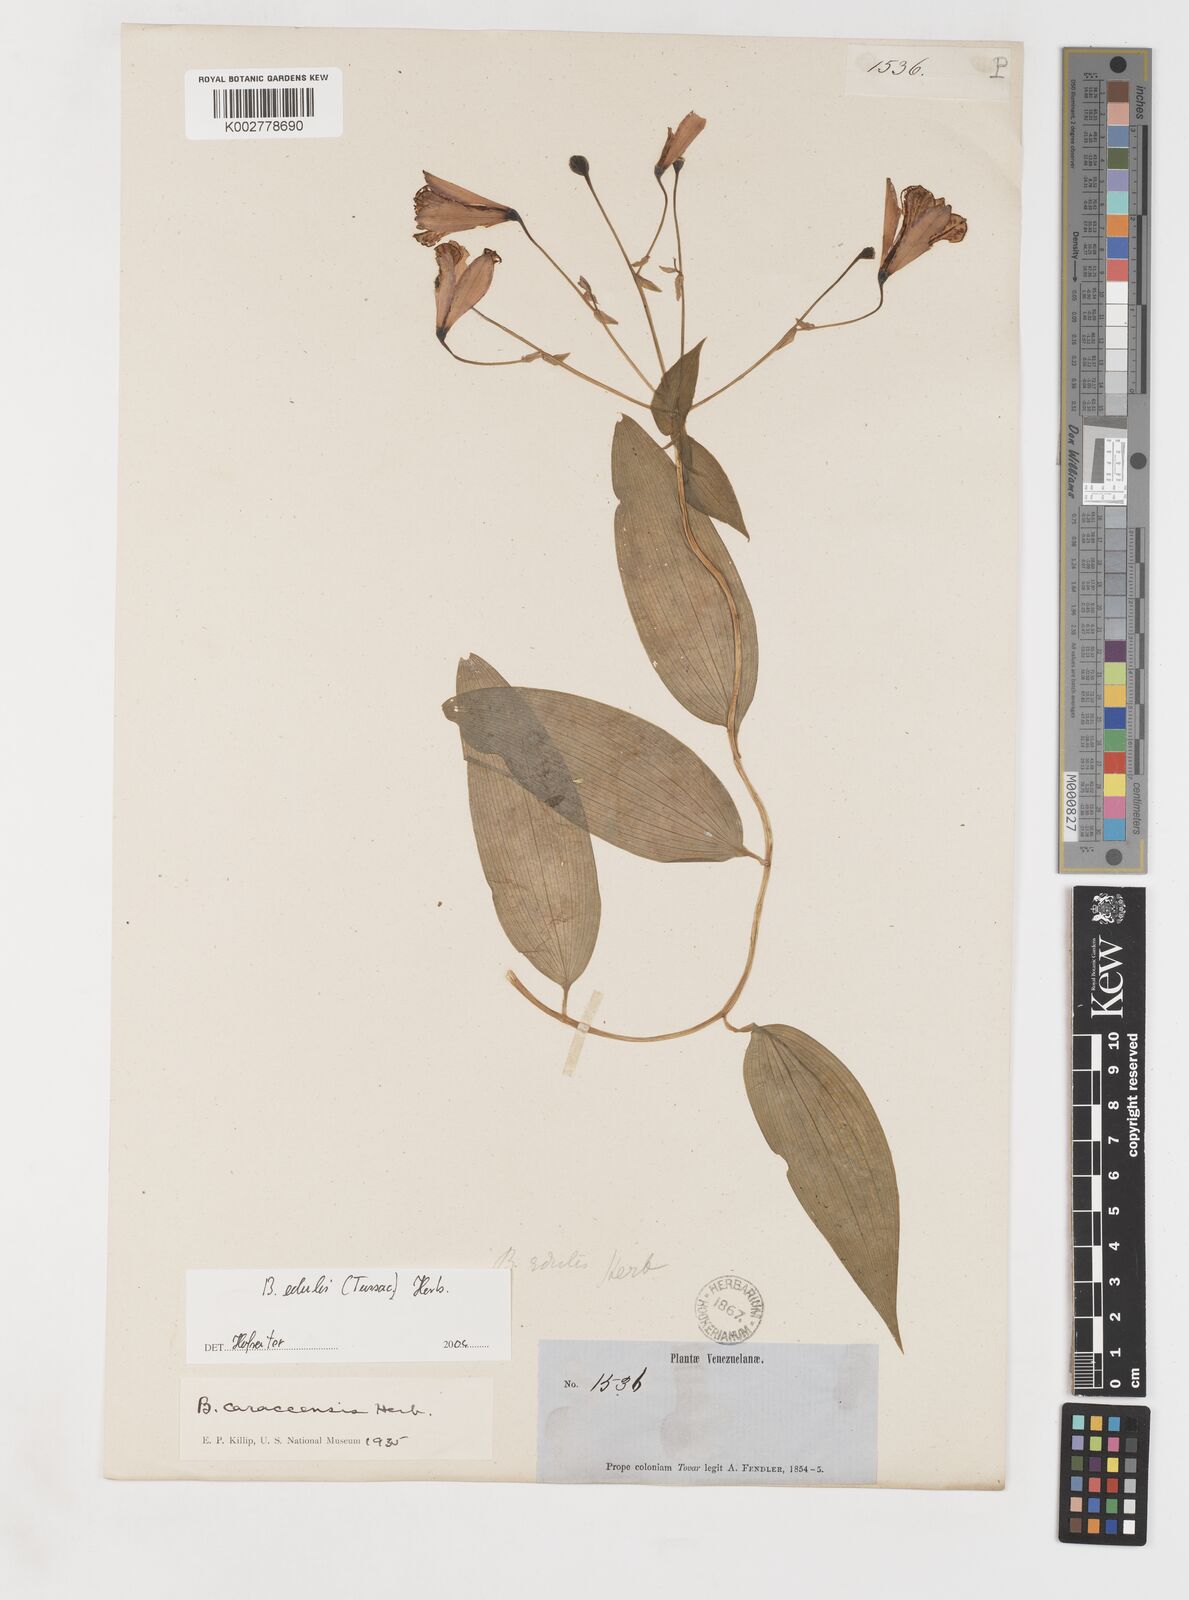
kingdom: Plantae
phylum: Tracheophyta
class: Liliopsida
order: Liliales
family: Alstroemeriaceae
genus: Bomarea
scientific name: Bomarea edulis
